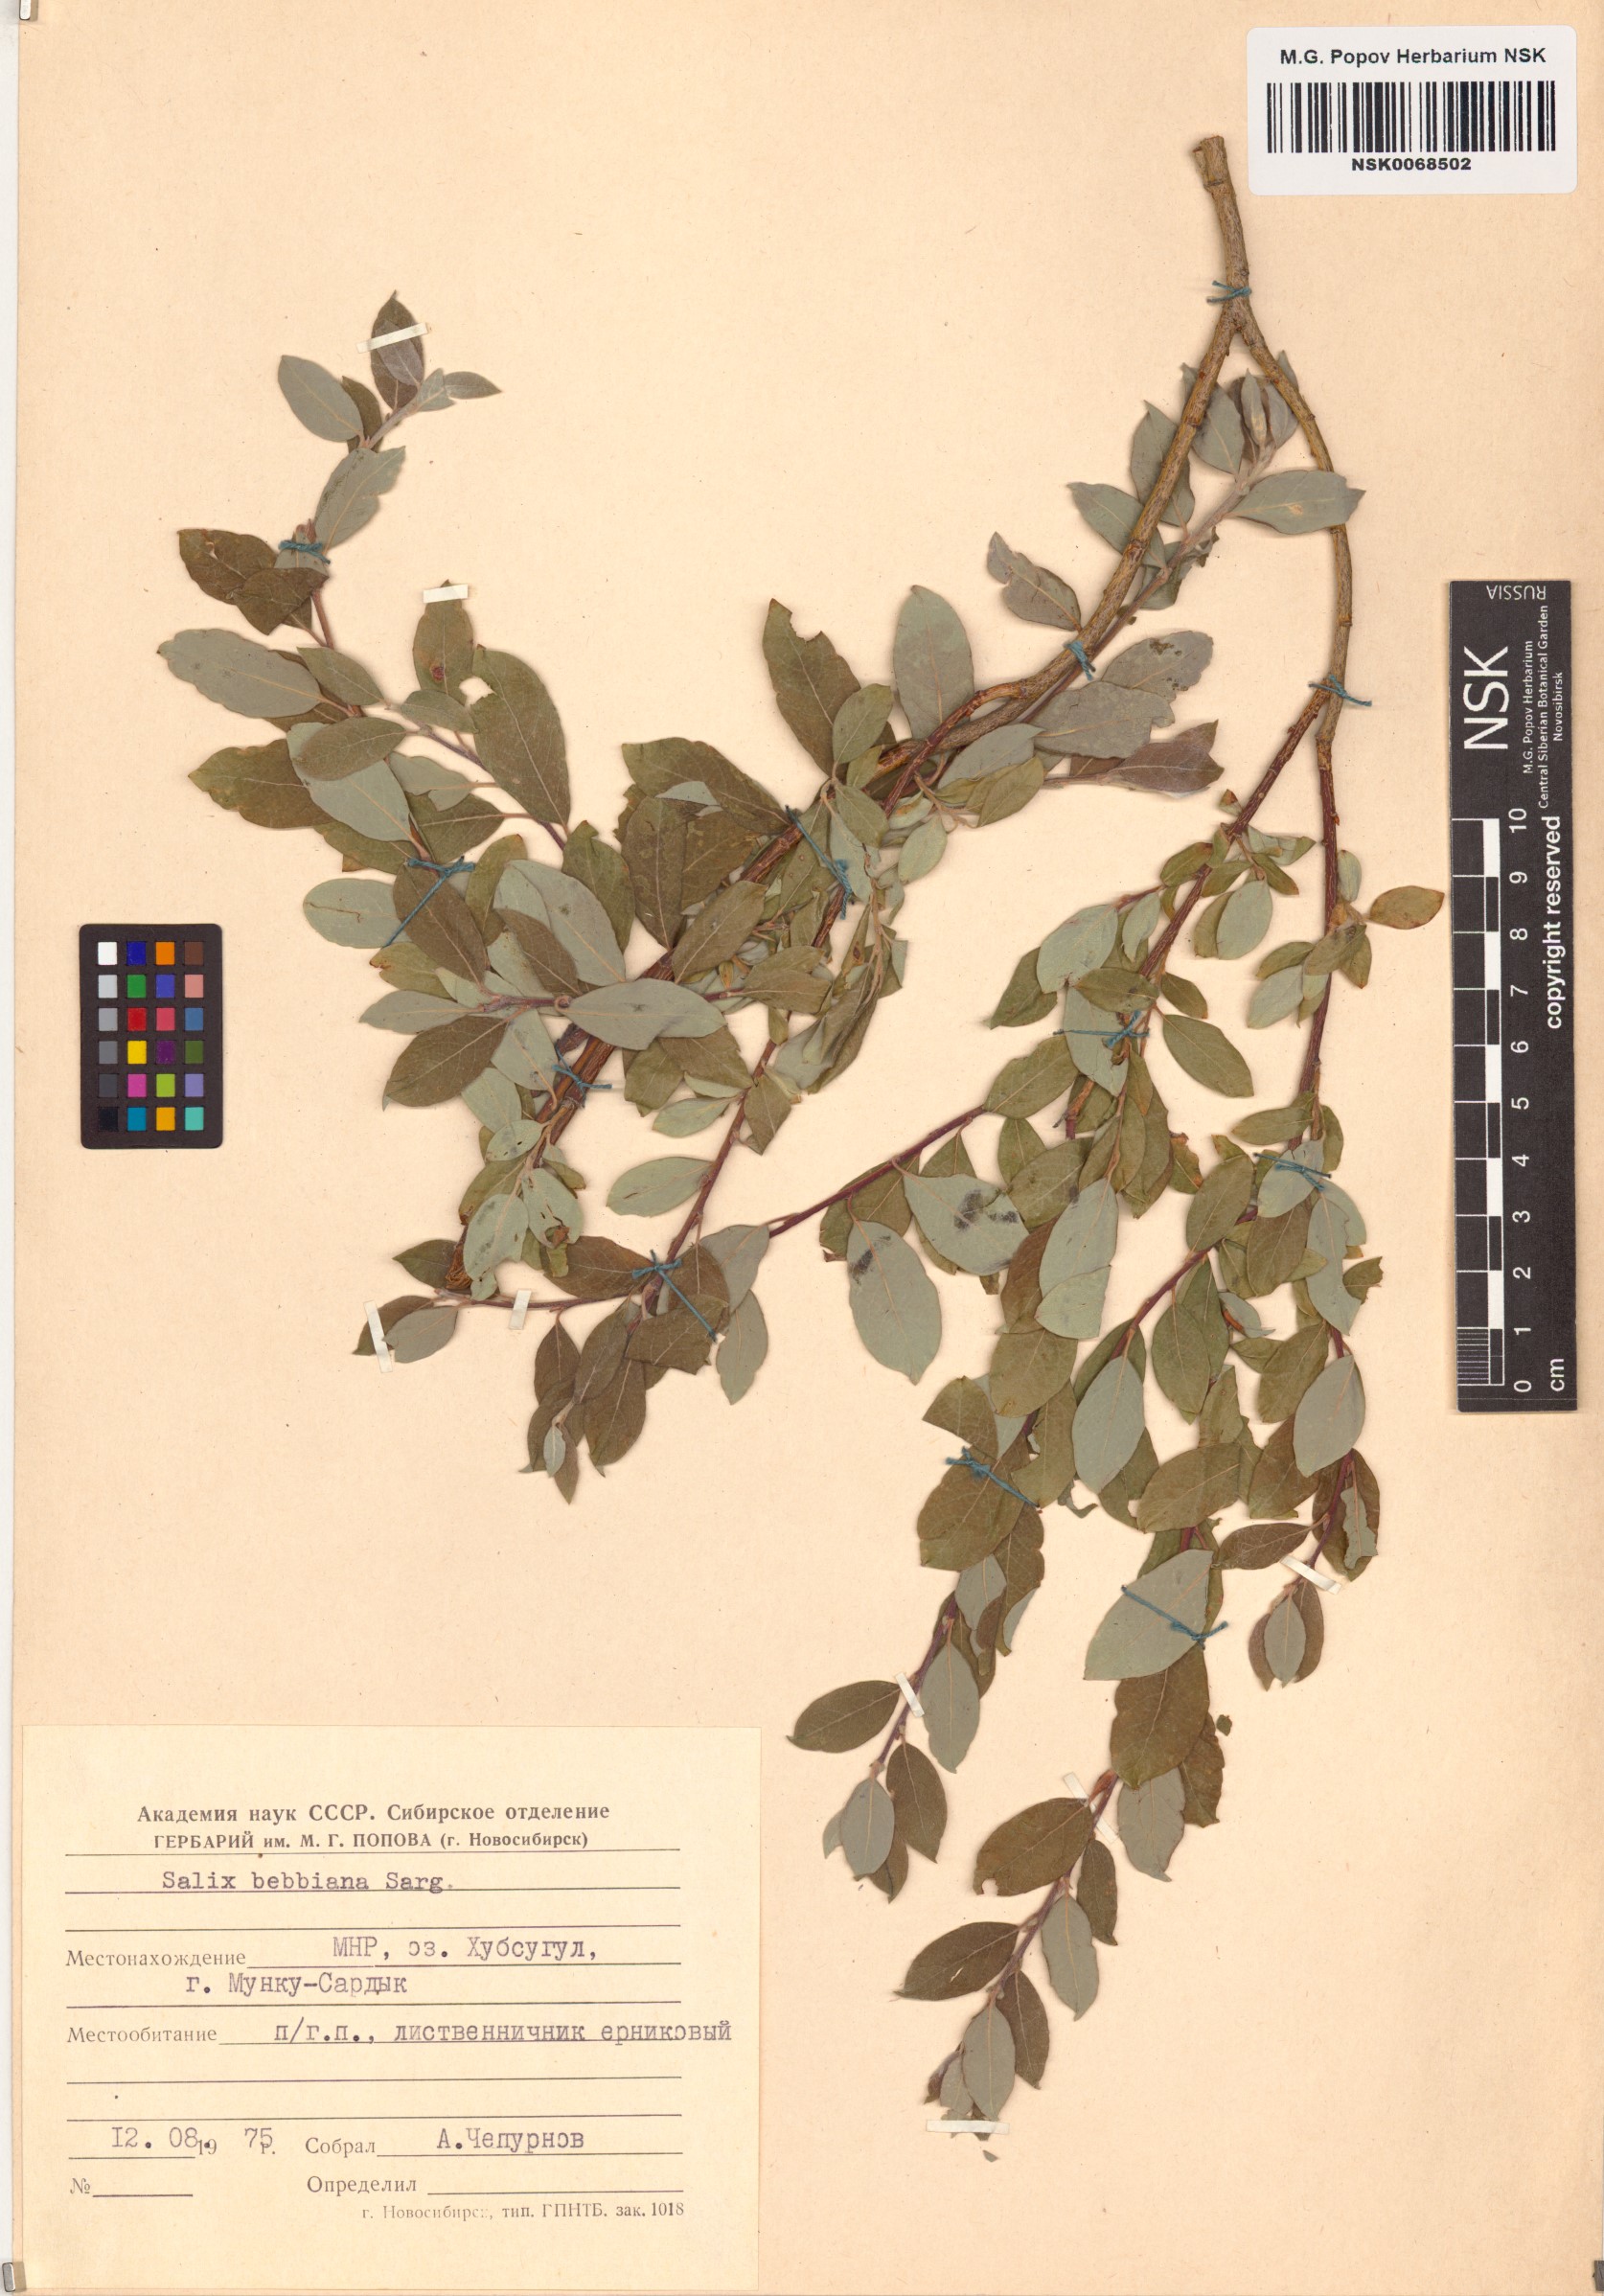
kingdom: Plantae
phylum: Tracheophyta
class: Magnoliopsida
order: Malpighiales
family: Salicaceae
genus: Salix
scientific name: Salix bebbiana
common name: Bebb's willow
